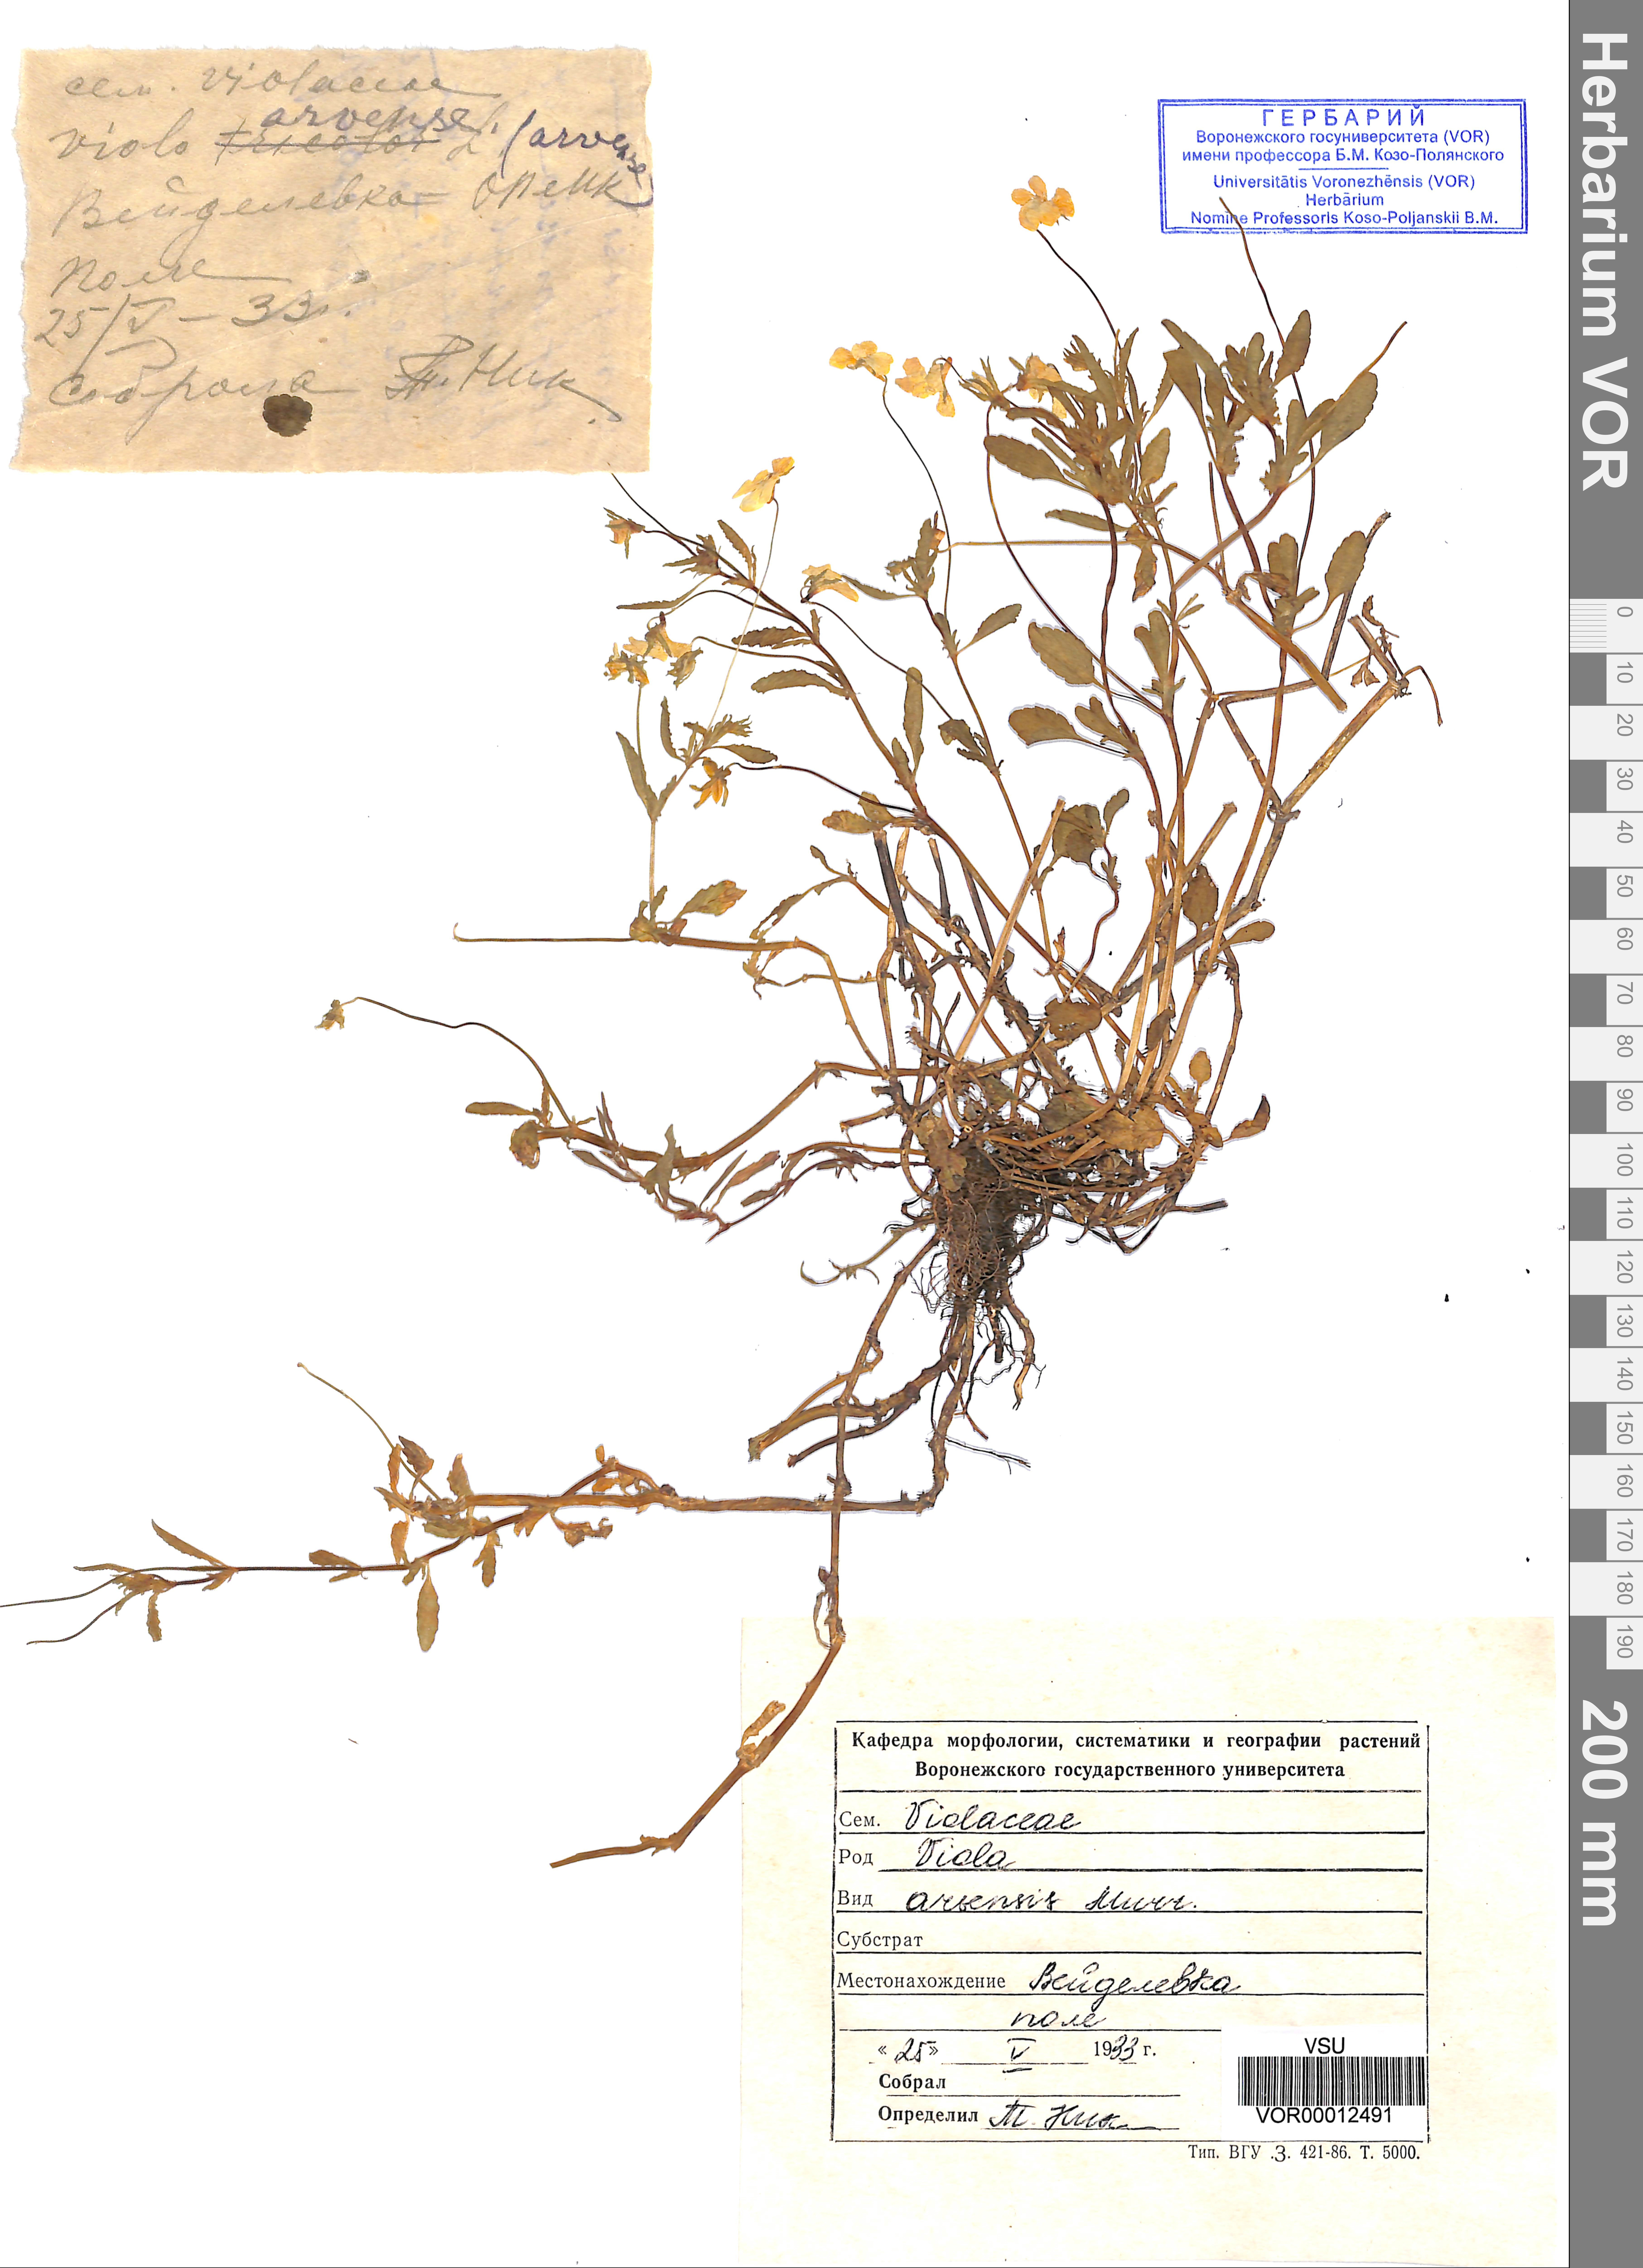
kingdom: Plantae
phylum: Tracheophyta
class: Magnoliopsida
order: Malpighiales
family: Violaceae
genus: Viola
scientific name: Viola arvensis
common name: Field pansy
